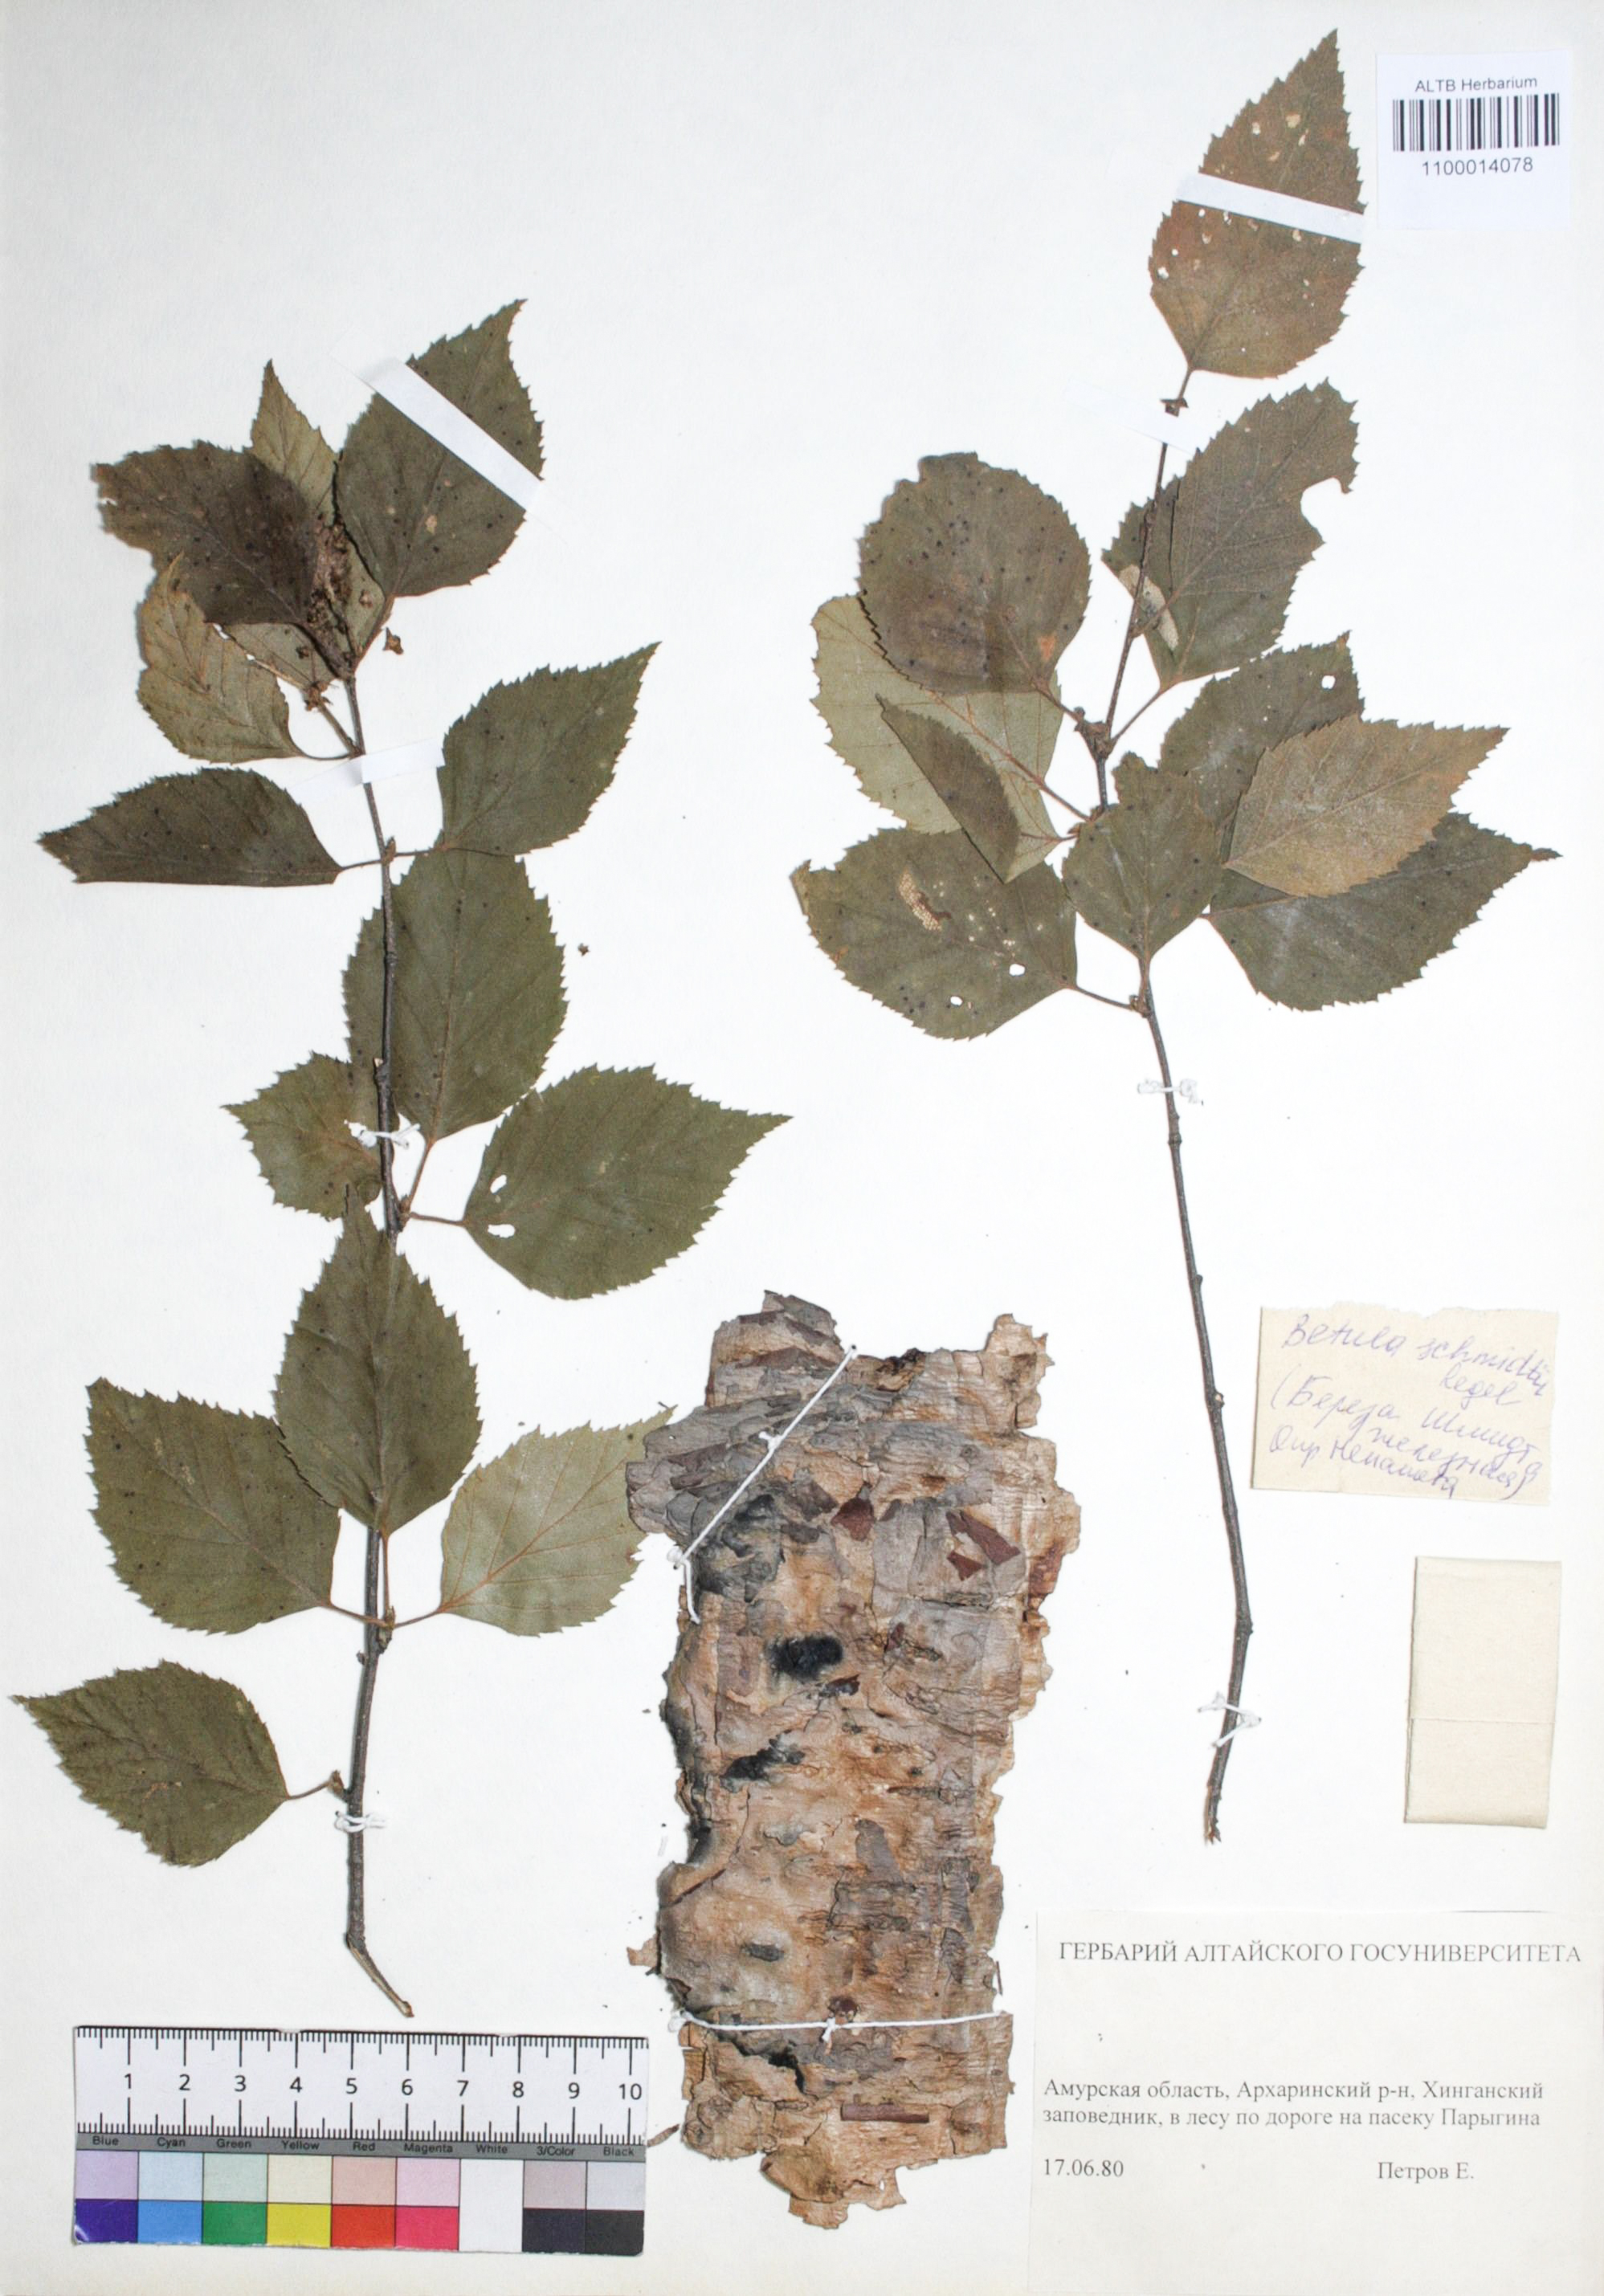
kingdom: Plantae
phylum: Tracheophyta
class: Magnoliopsida
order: Fagales
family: Betulaceae
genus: Betula
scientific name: Betula schmidtii
